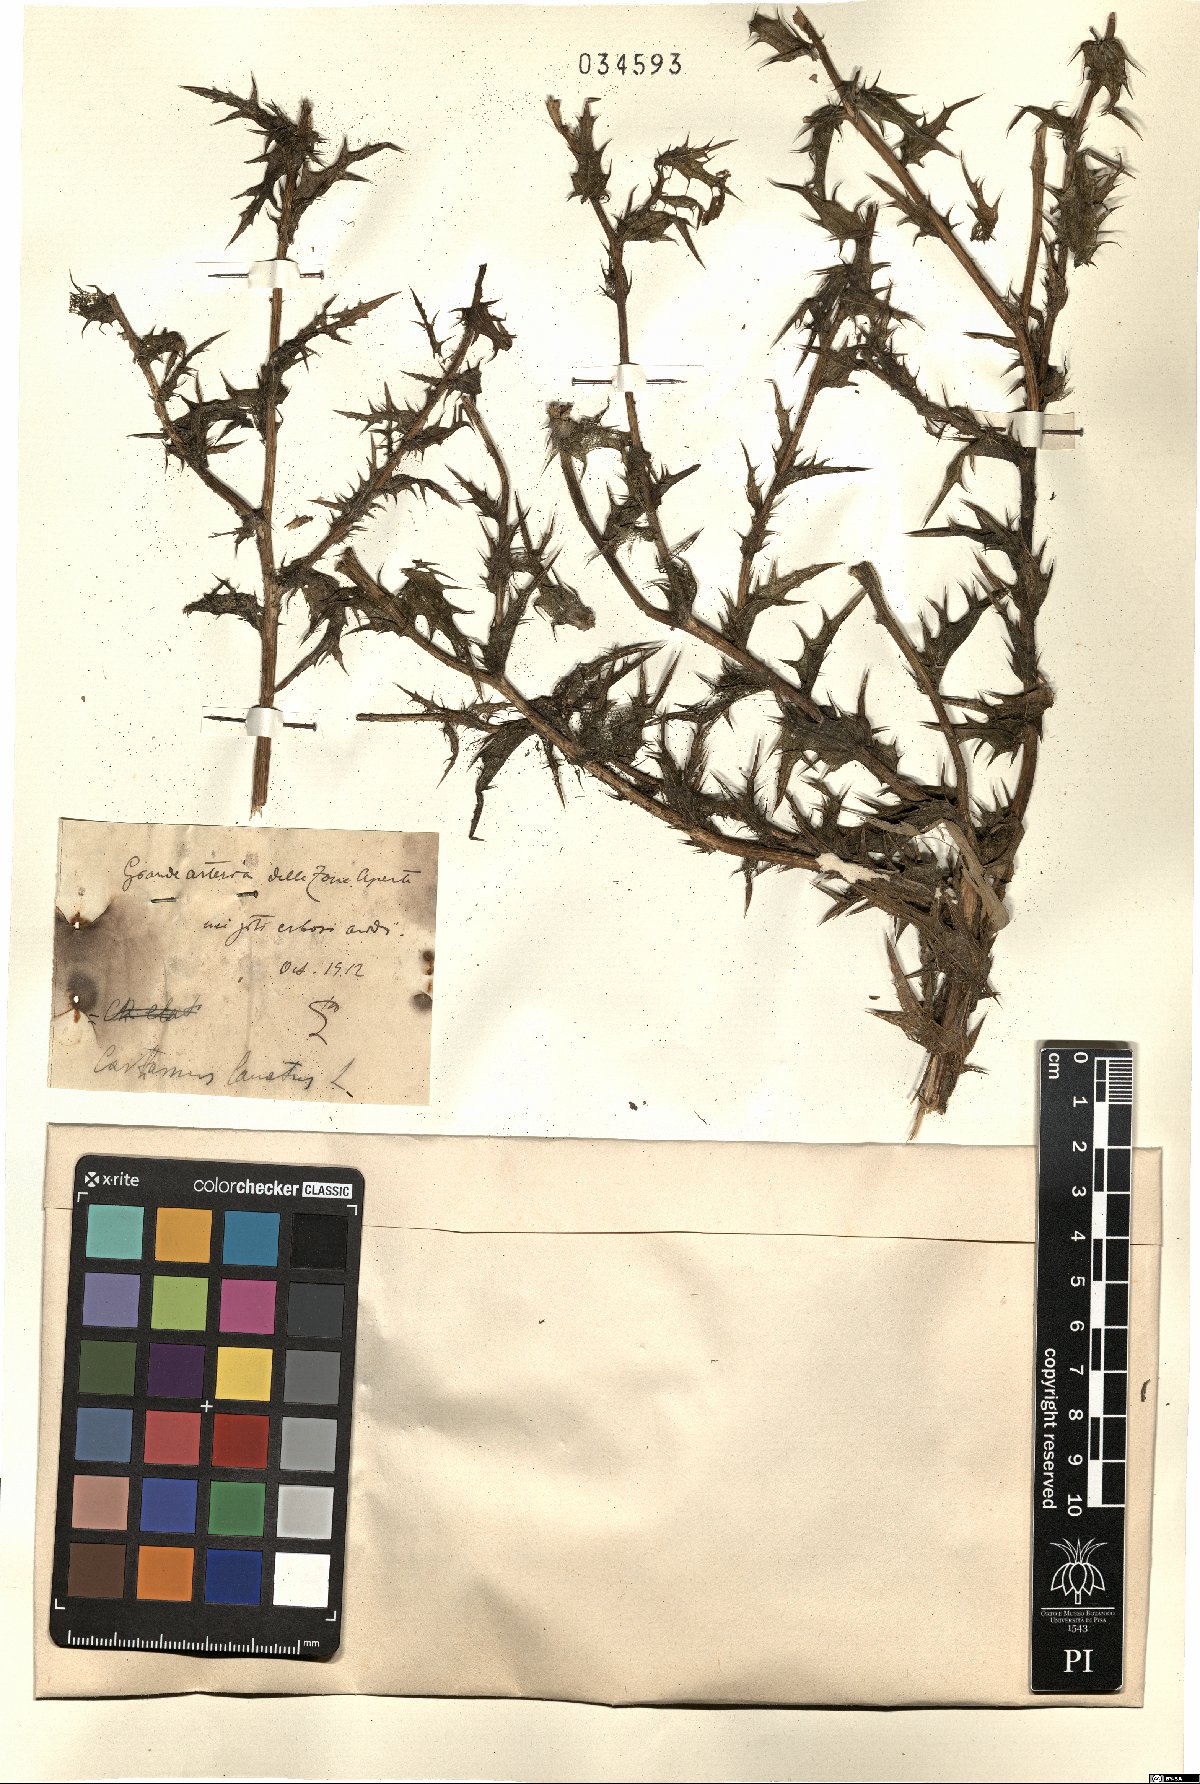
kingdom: Plantae
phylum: Tracheophyta
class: Magnoliopsida
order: Asterales
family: Asteraceae
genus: Carthamus
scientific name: Carthamus lanatus
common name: Downy safflower
